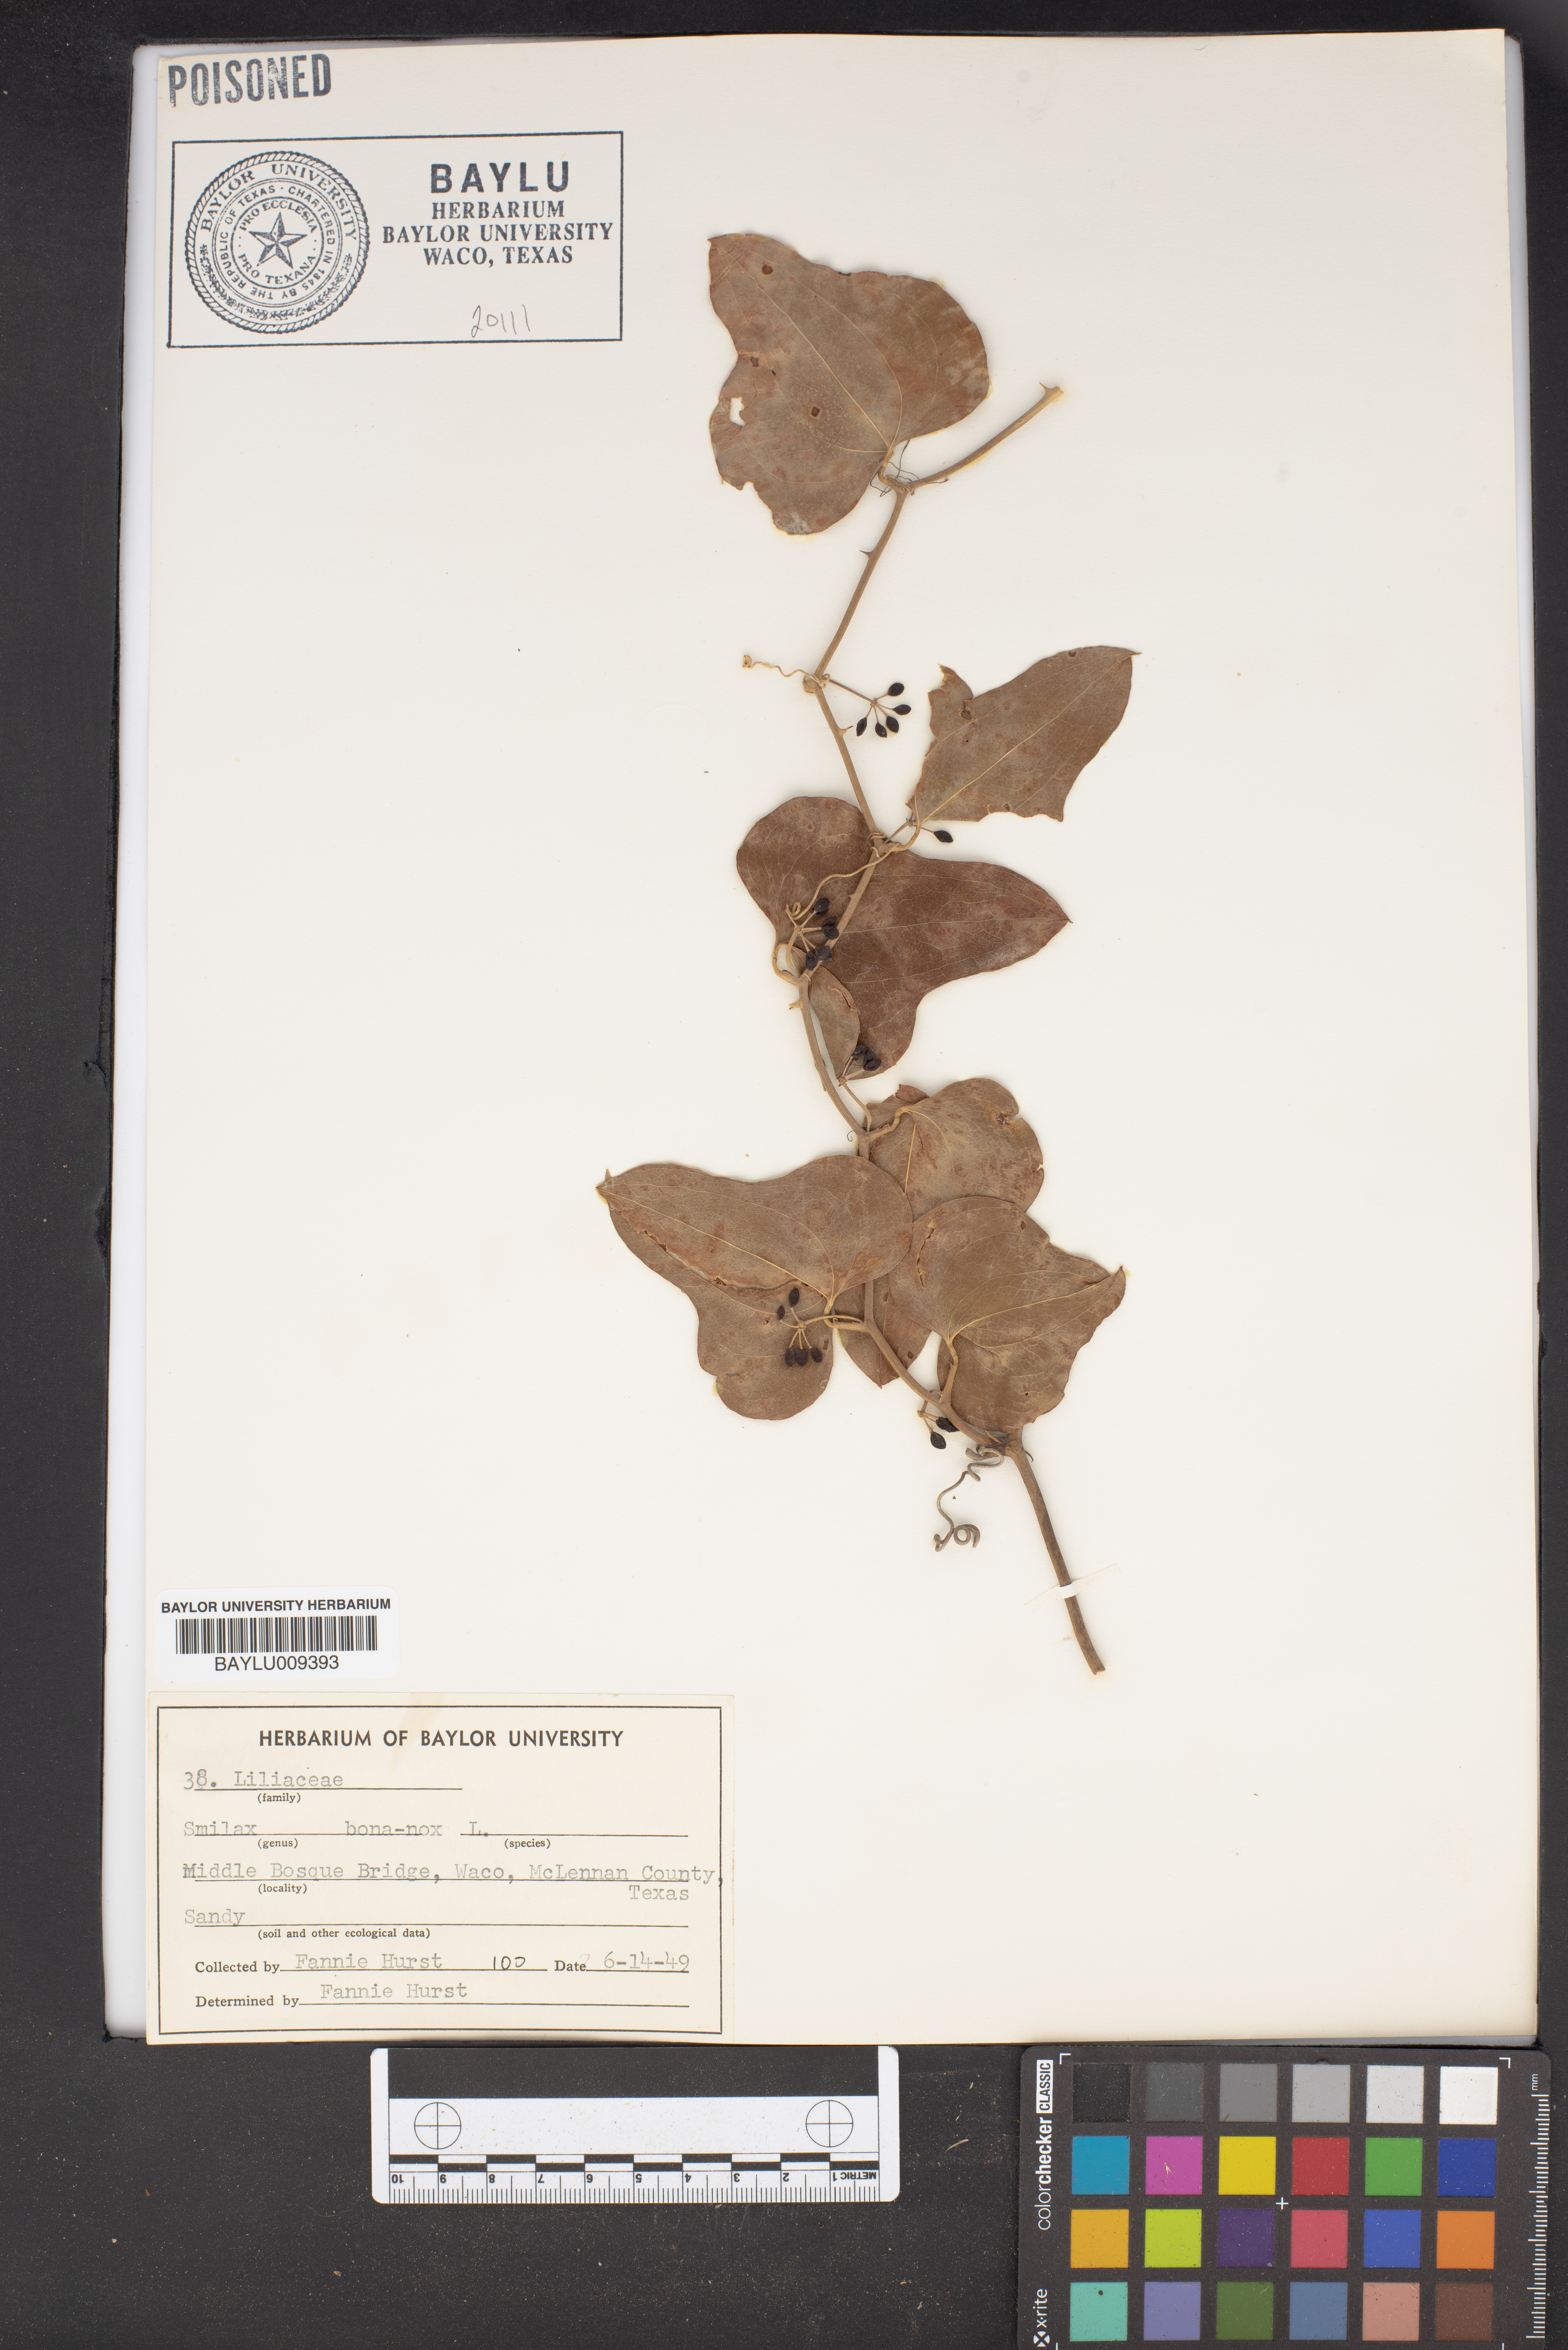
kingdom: Plantae
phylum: Tracheophyta
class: Liliopsida
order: Liliales
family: Smilacaceae
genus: Smilax
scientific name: Smilax bona-nox
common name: Catbrier
